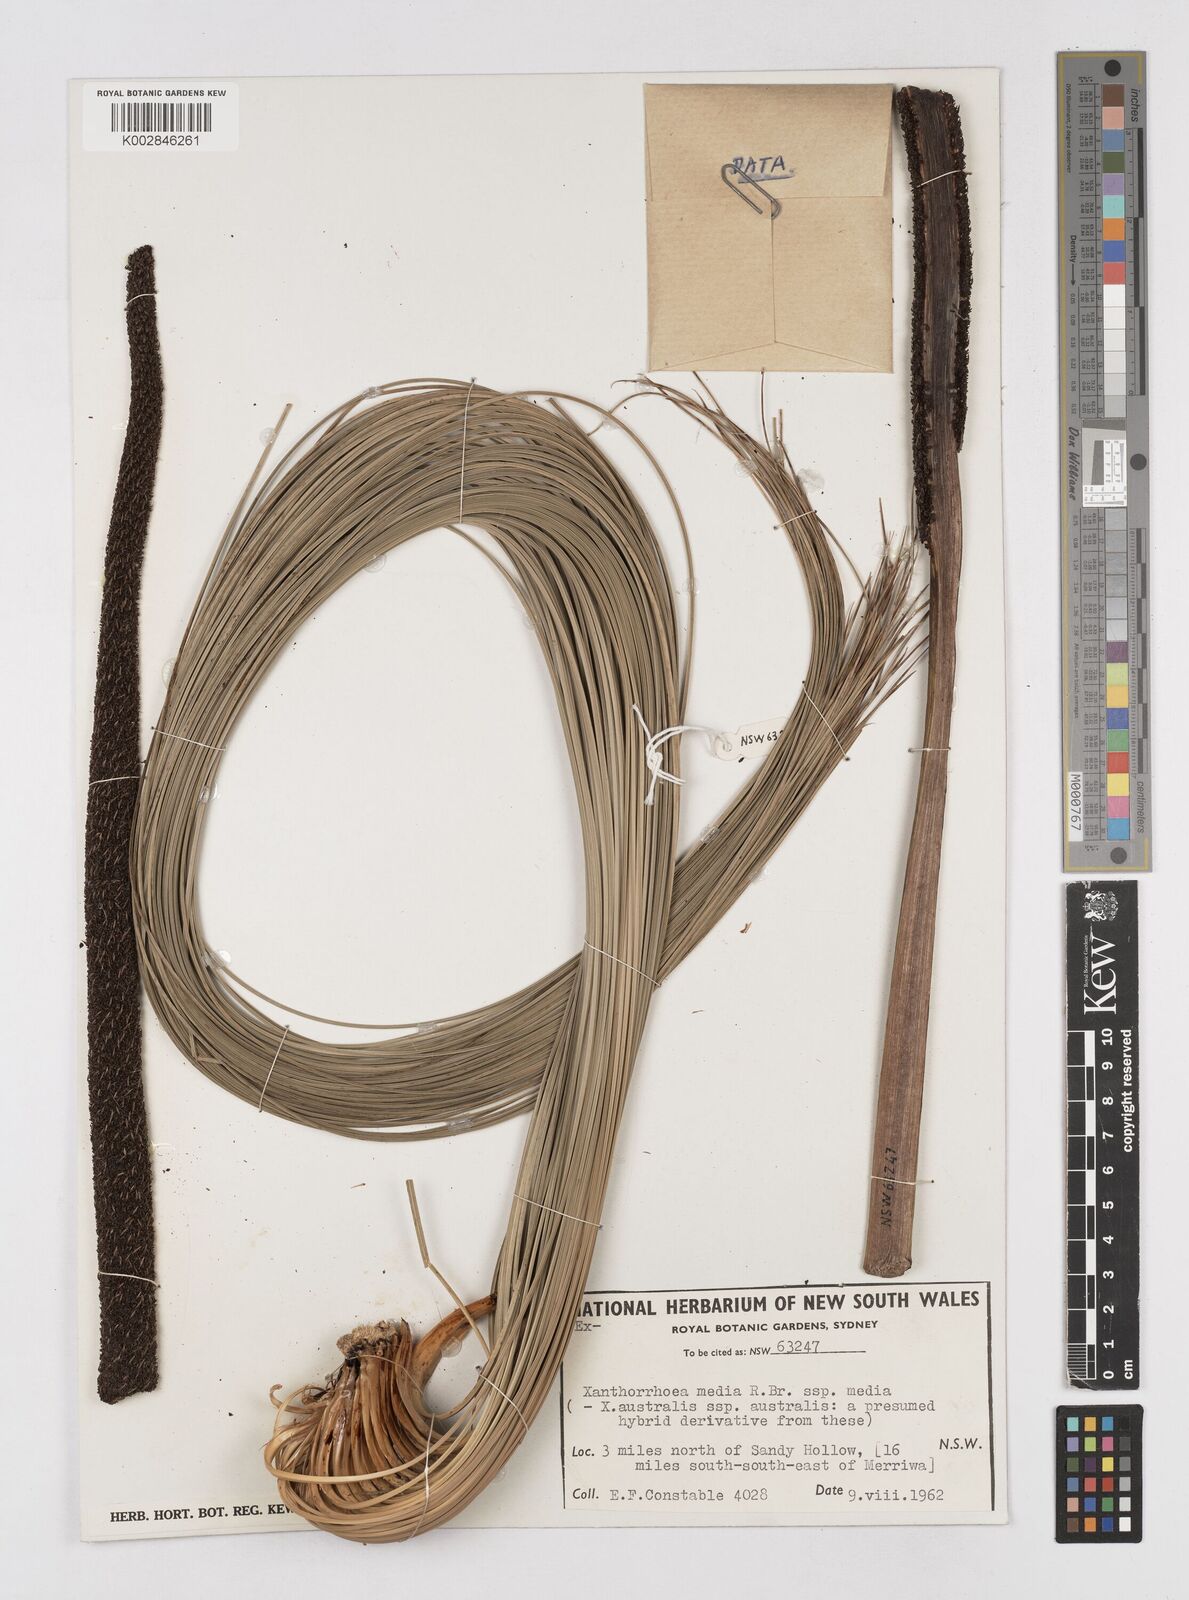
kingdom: Plantae
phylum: Tracheophyta
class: Liliopsida
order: Asparagales
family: Asphodelaceae
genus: Xanthorrhoea
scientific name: Xanthorrhoea media
